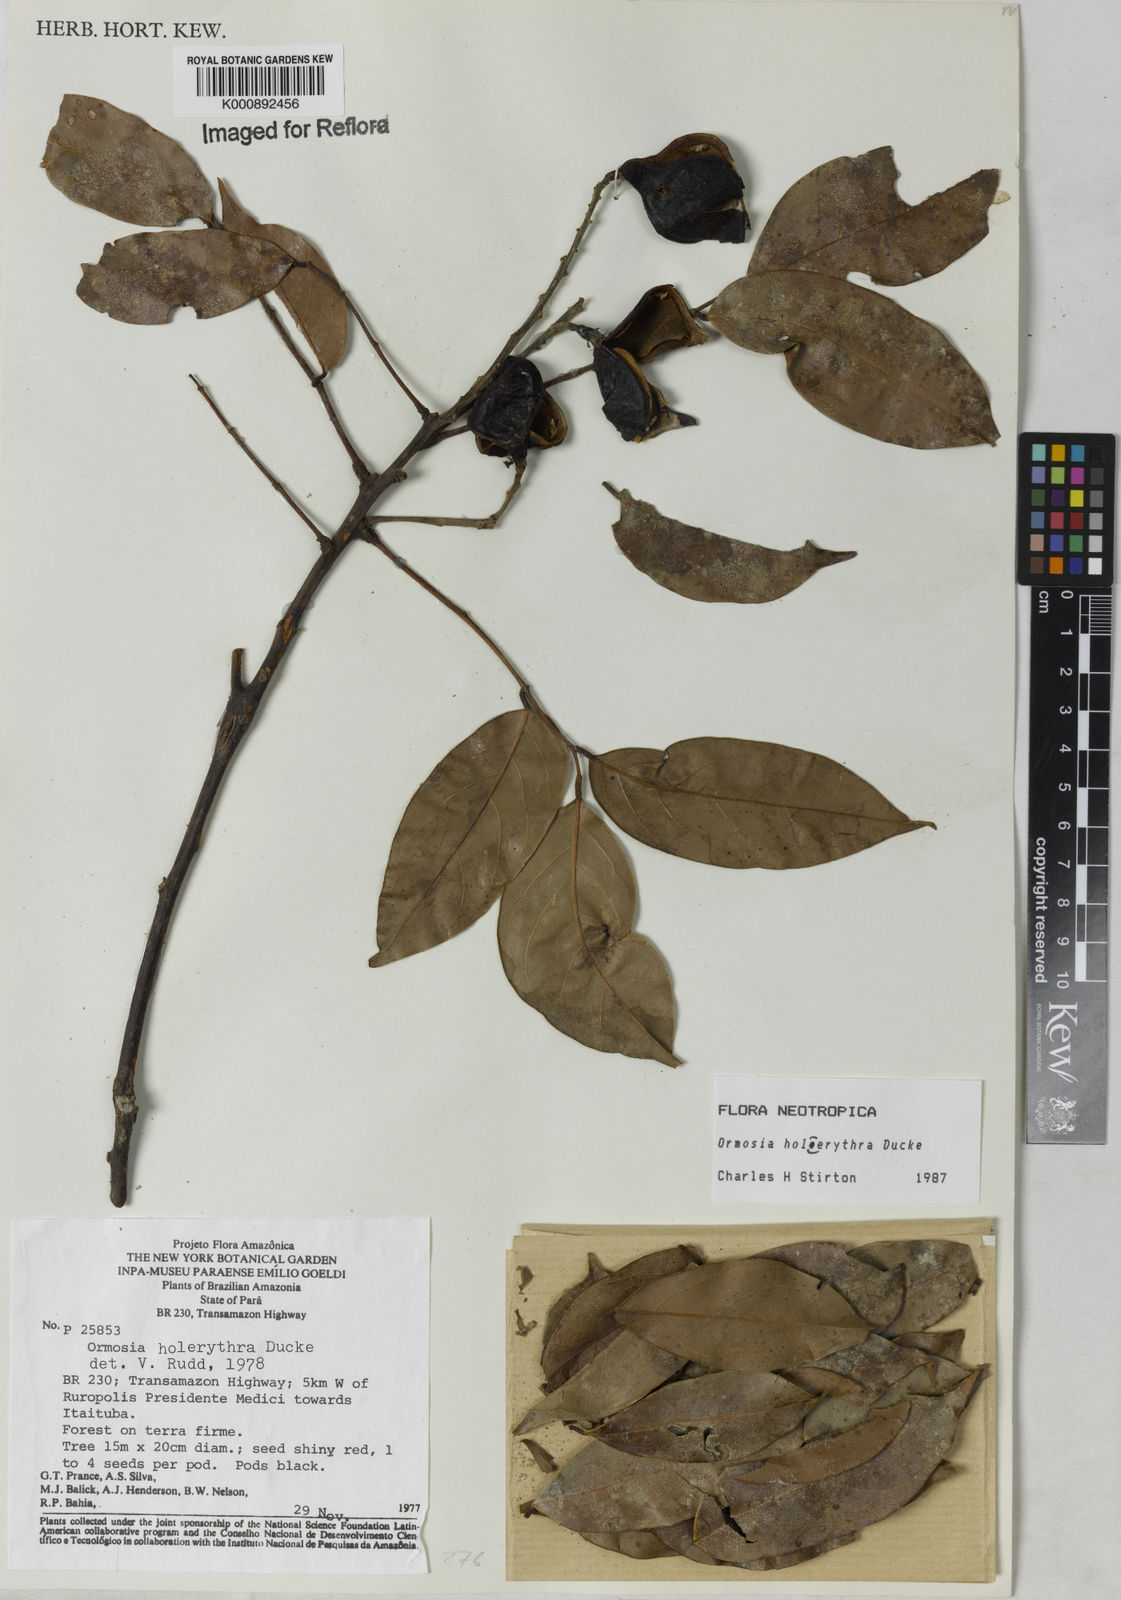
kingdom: Plantae
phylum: Tracheophyta
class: Magnoliopsida
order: Fabales
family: Fabaceae
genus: Ormosia
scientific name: Ormosia holerythra
